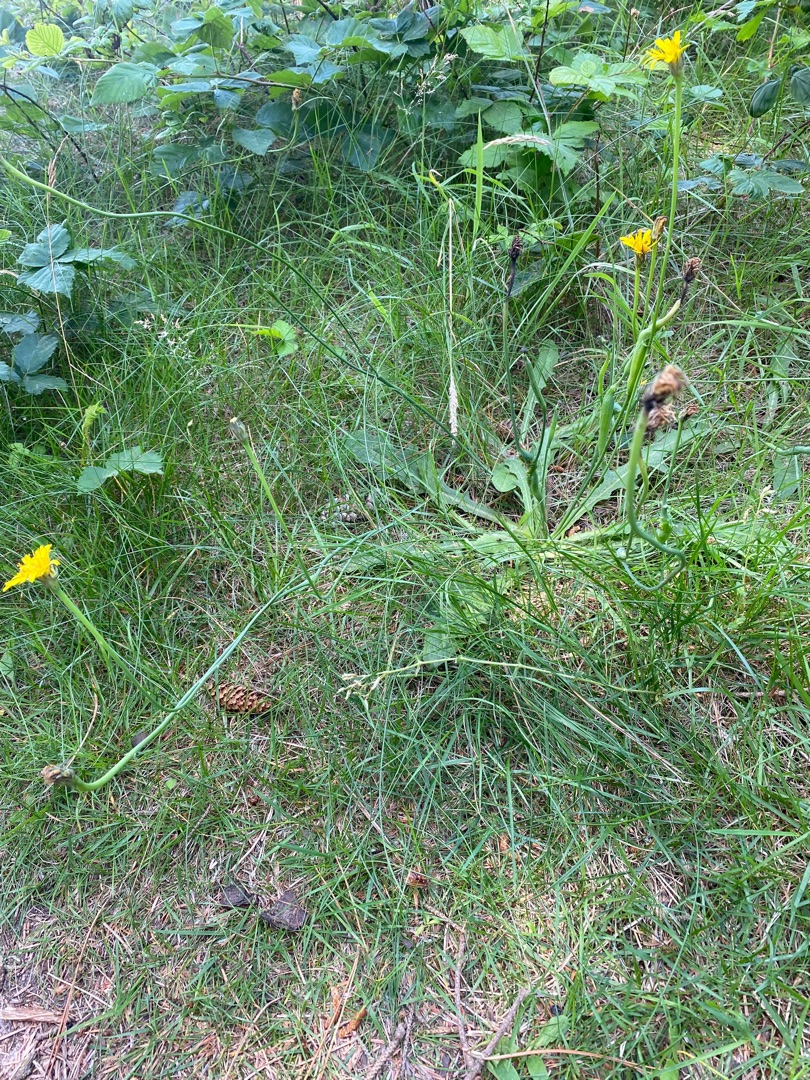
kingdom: Plantae
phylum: Tracheophyta
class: Magnoliopsida
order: Asterales
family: Asteraceae
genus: Hypochaeris
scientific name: Hypochaeris radicata
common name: Almindelig kongepen
